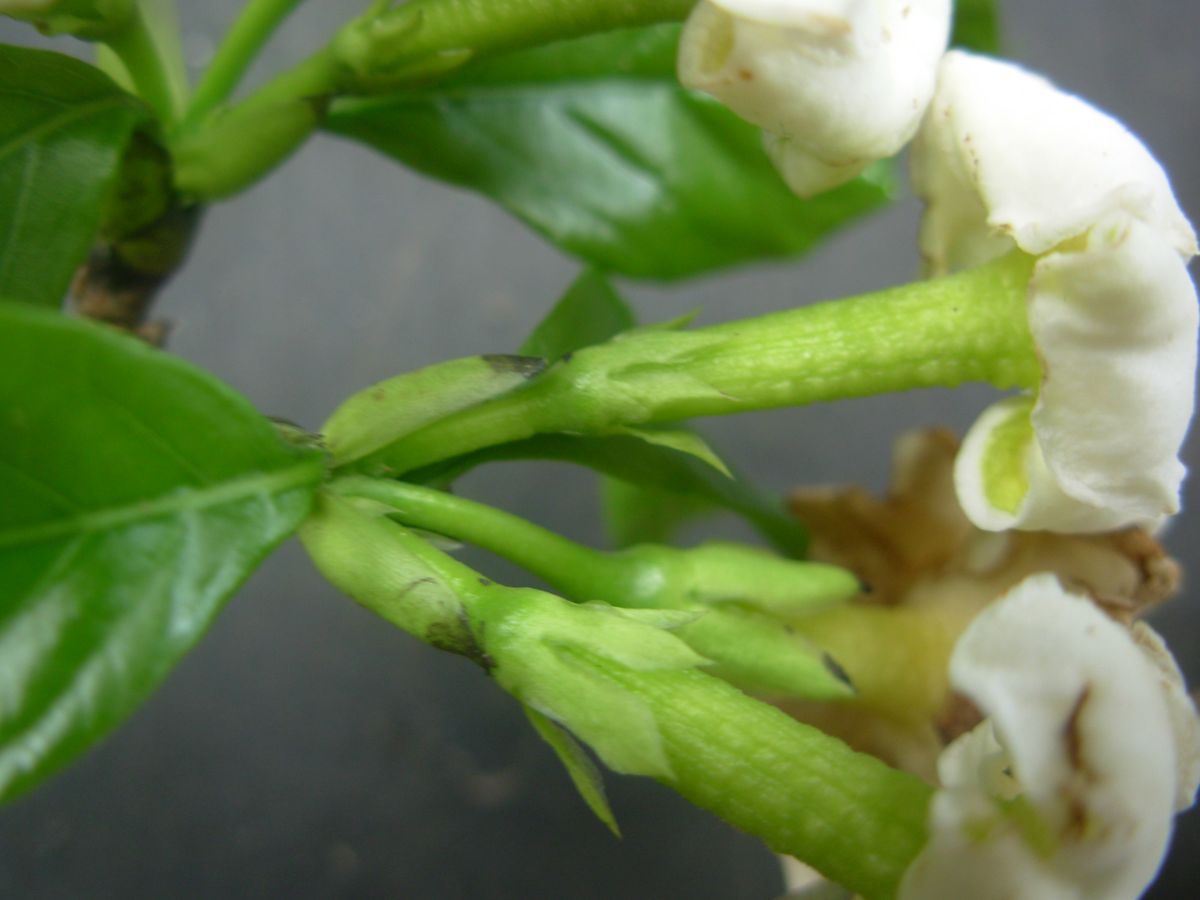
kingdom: Plantae
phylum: Tracheophyta
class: Magnoliopsida
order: Gentianales
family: Rubiaceae
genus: Randia
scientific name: Randia armata
